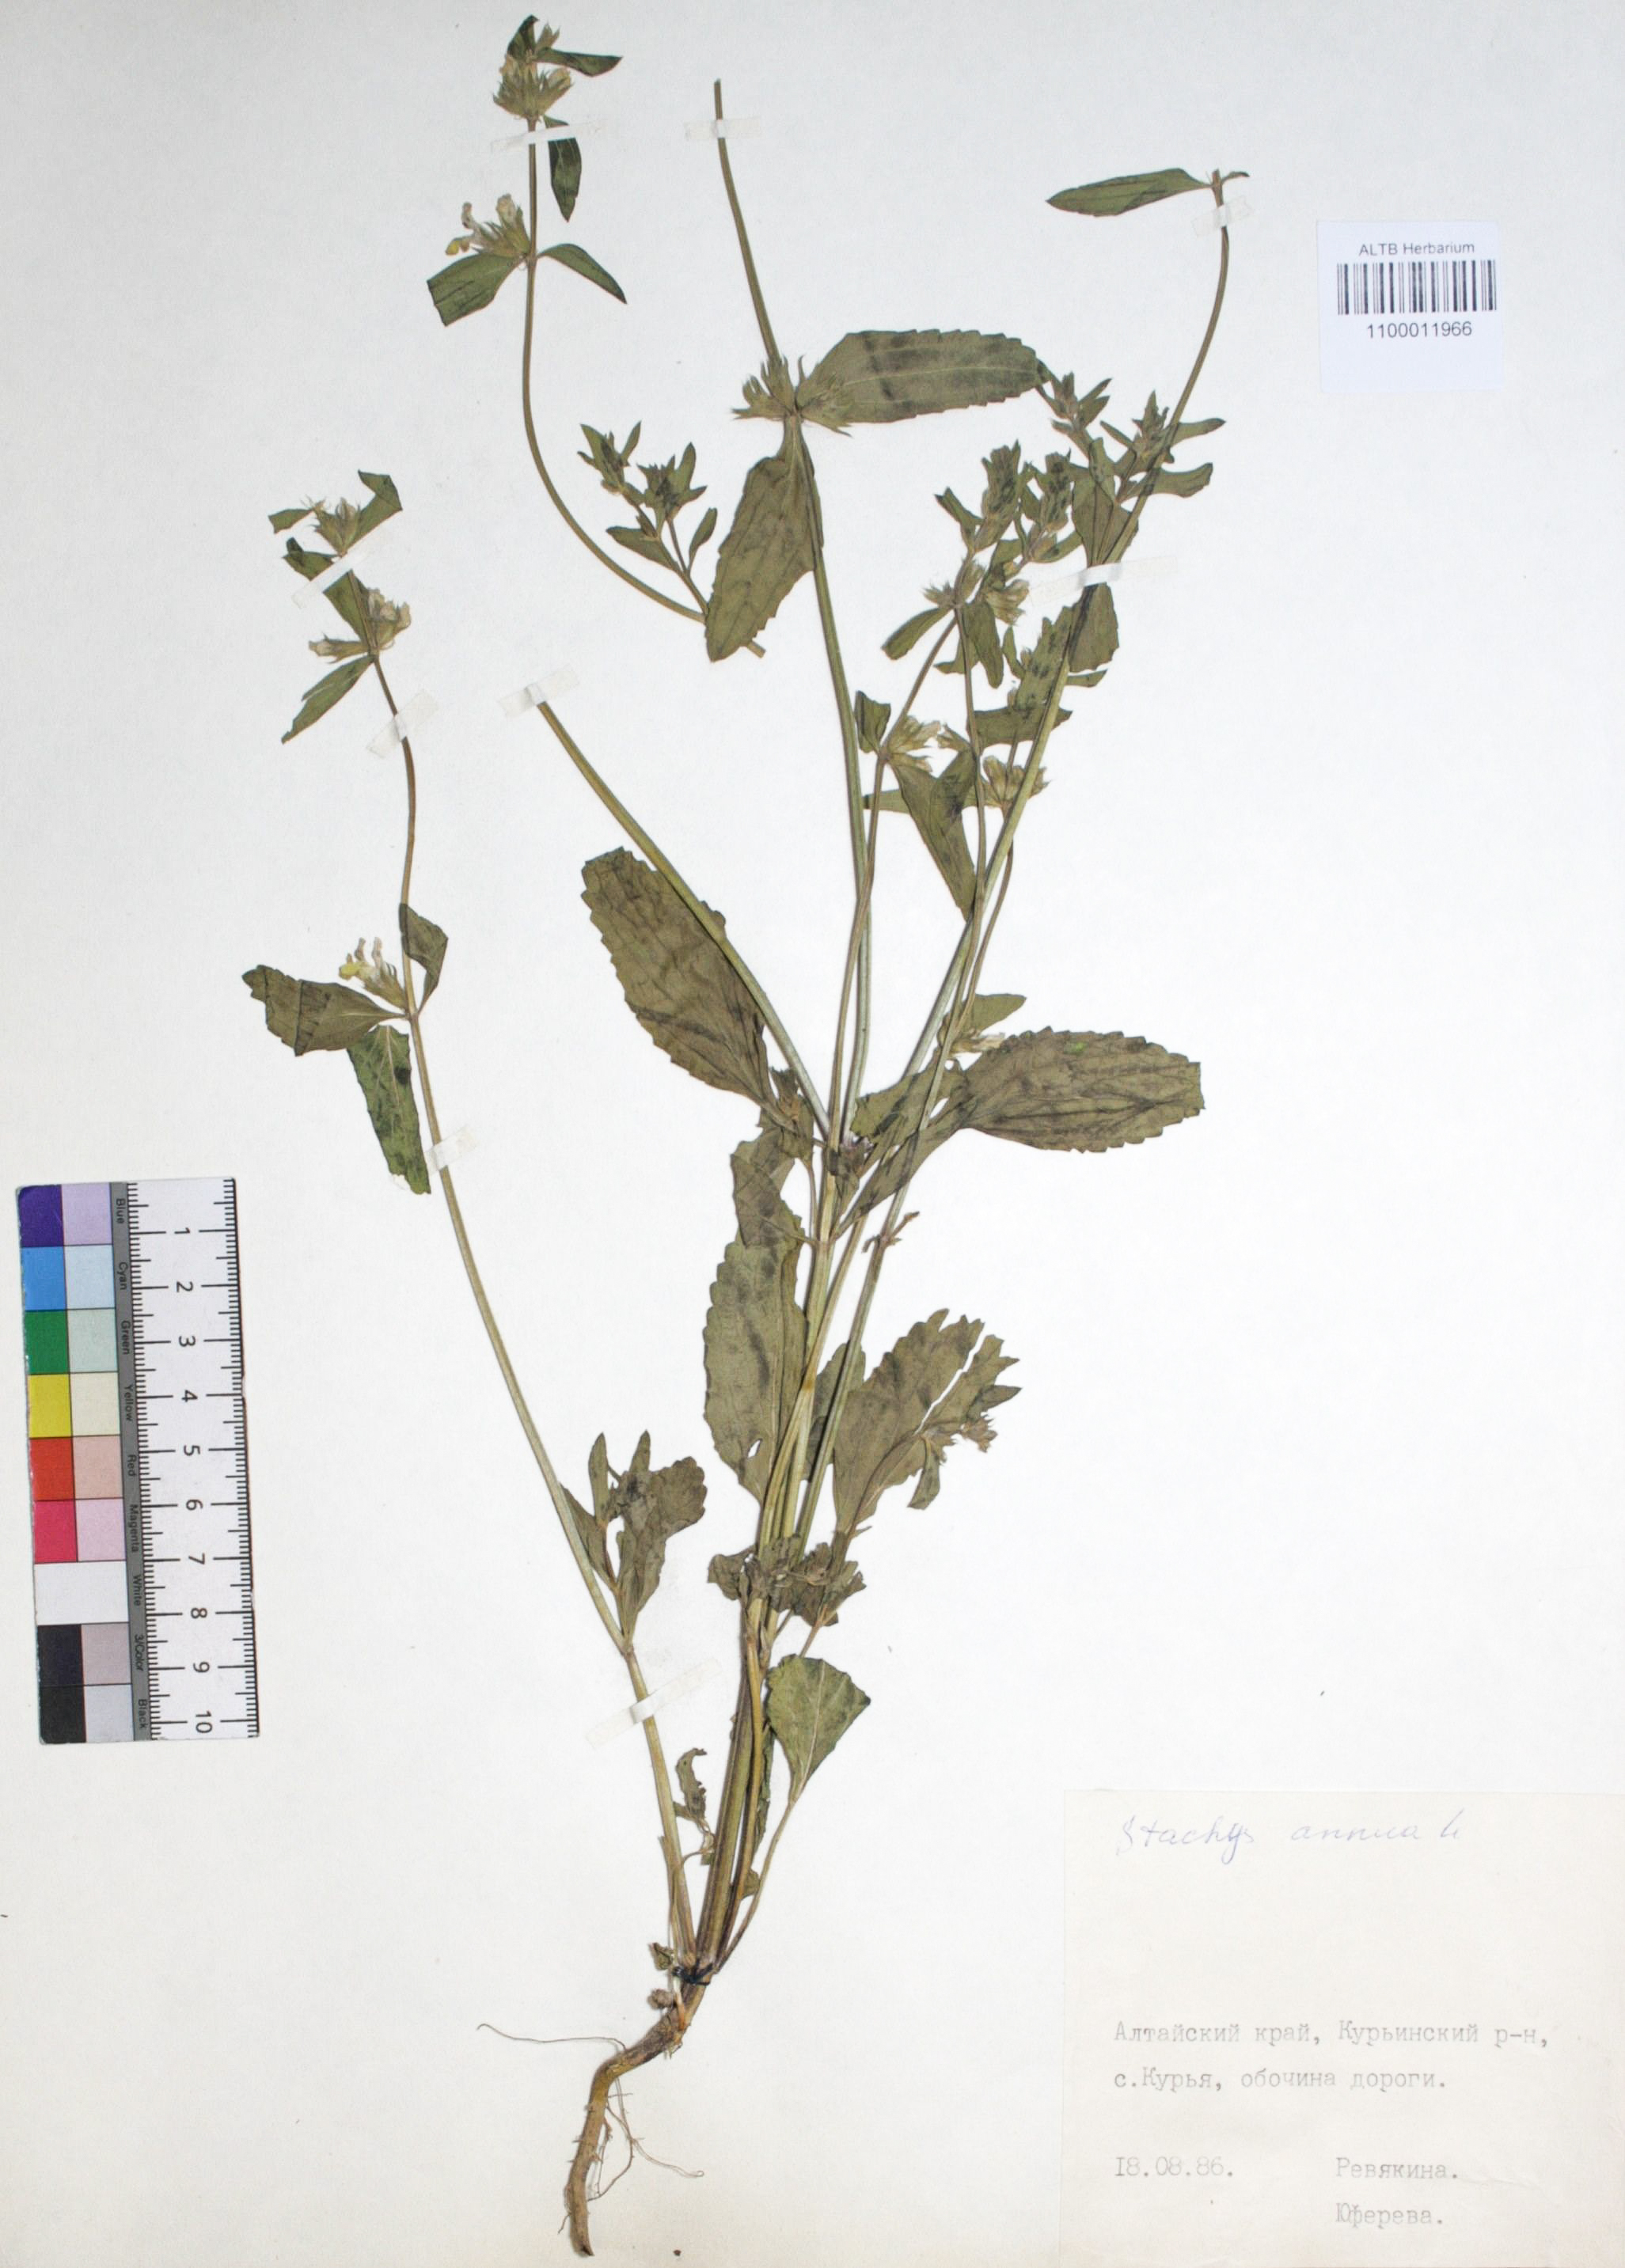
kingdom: Plantae
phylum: Tracheophyta
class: Magnoliopsida
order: Lamiales
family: Lamiaceae
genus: Stachys
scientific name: Stachys annua
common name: Annual yellow-woundwort
